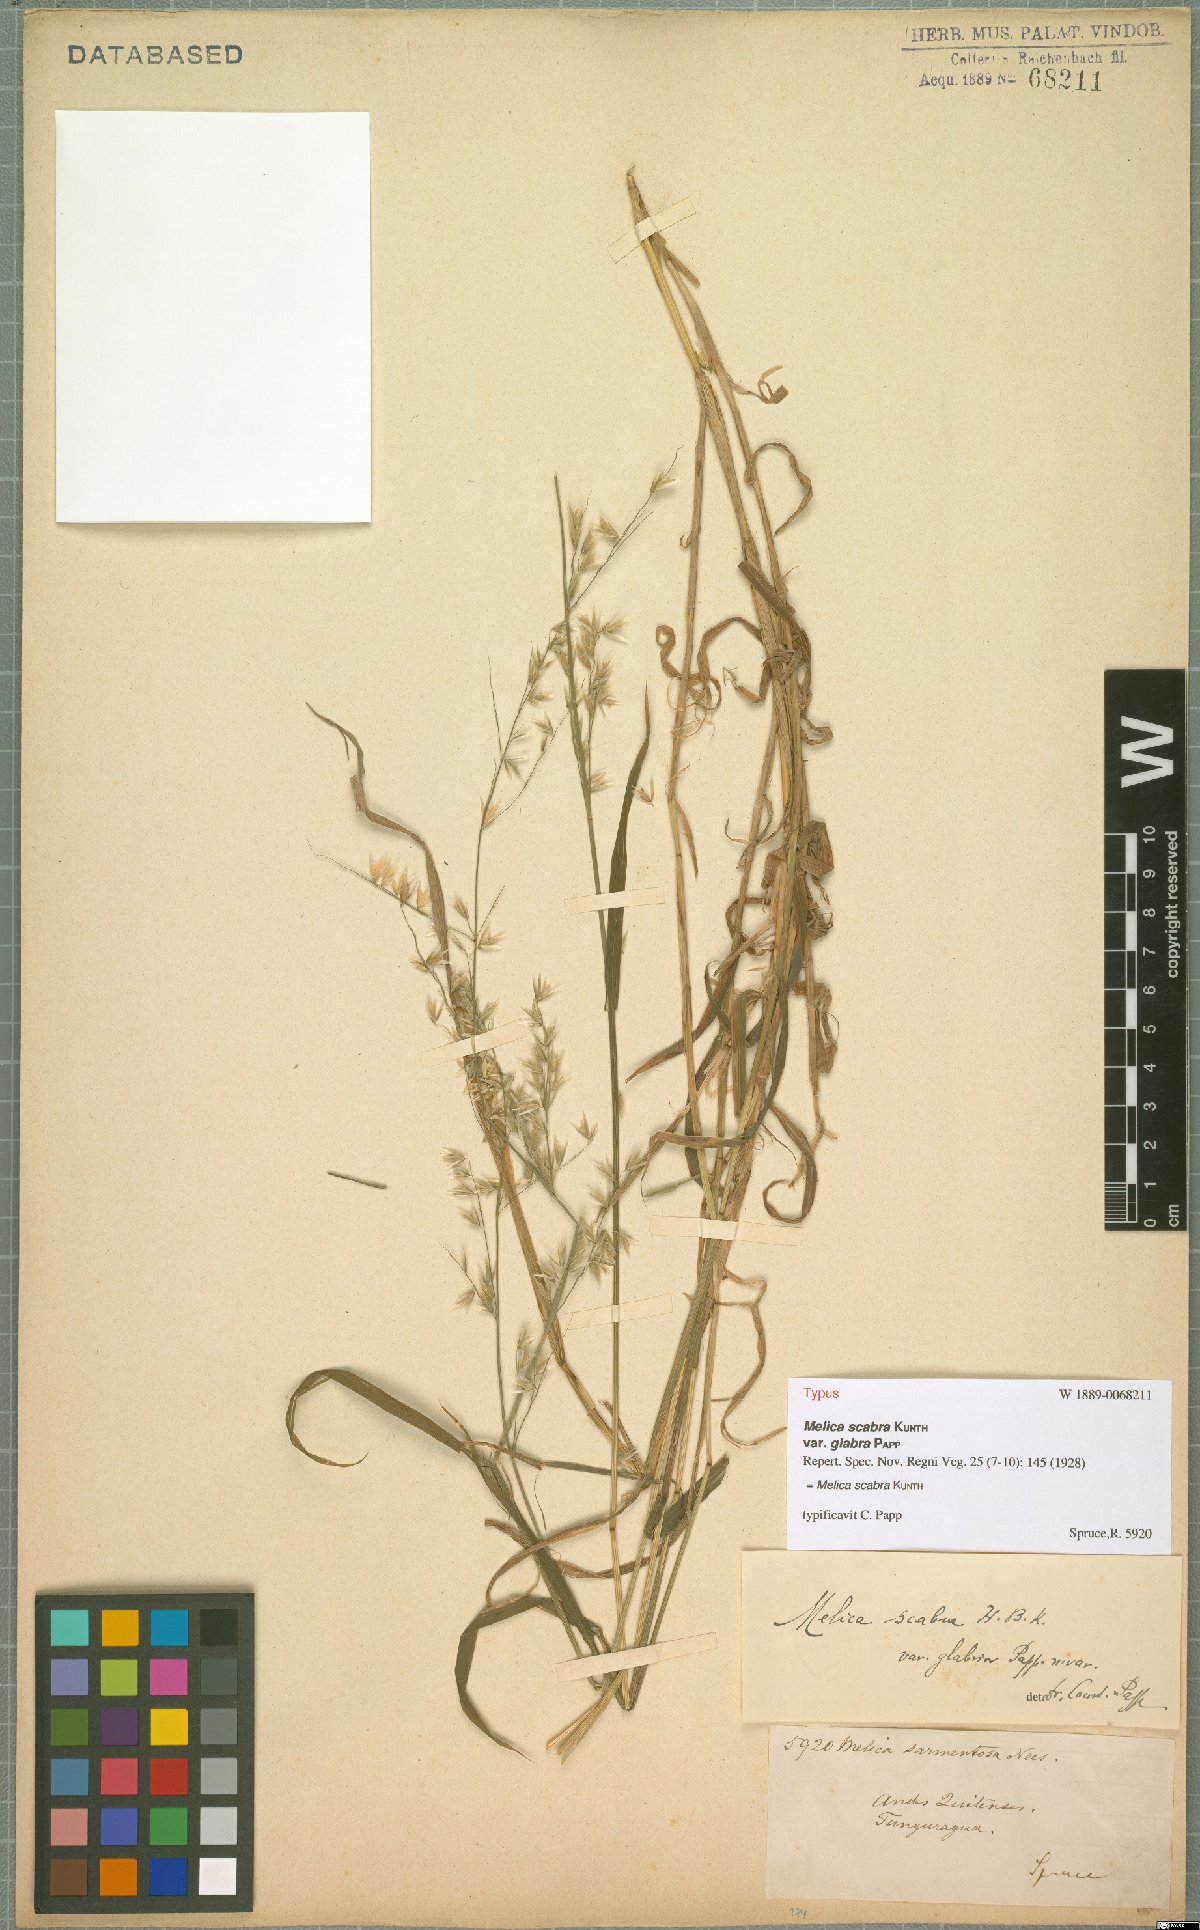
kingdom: Plantae
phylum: Tracheophyta
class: Liliopsida
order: Poales
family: Poaceae
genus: Melica
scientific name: Melica scabra
